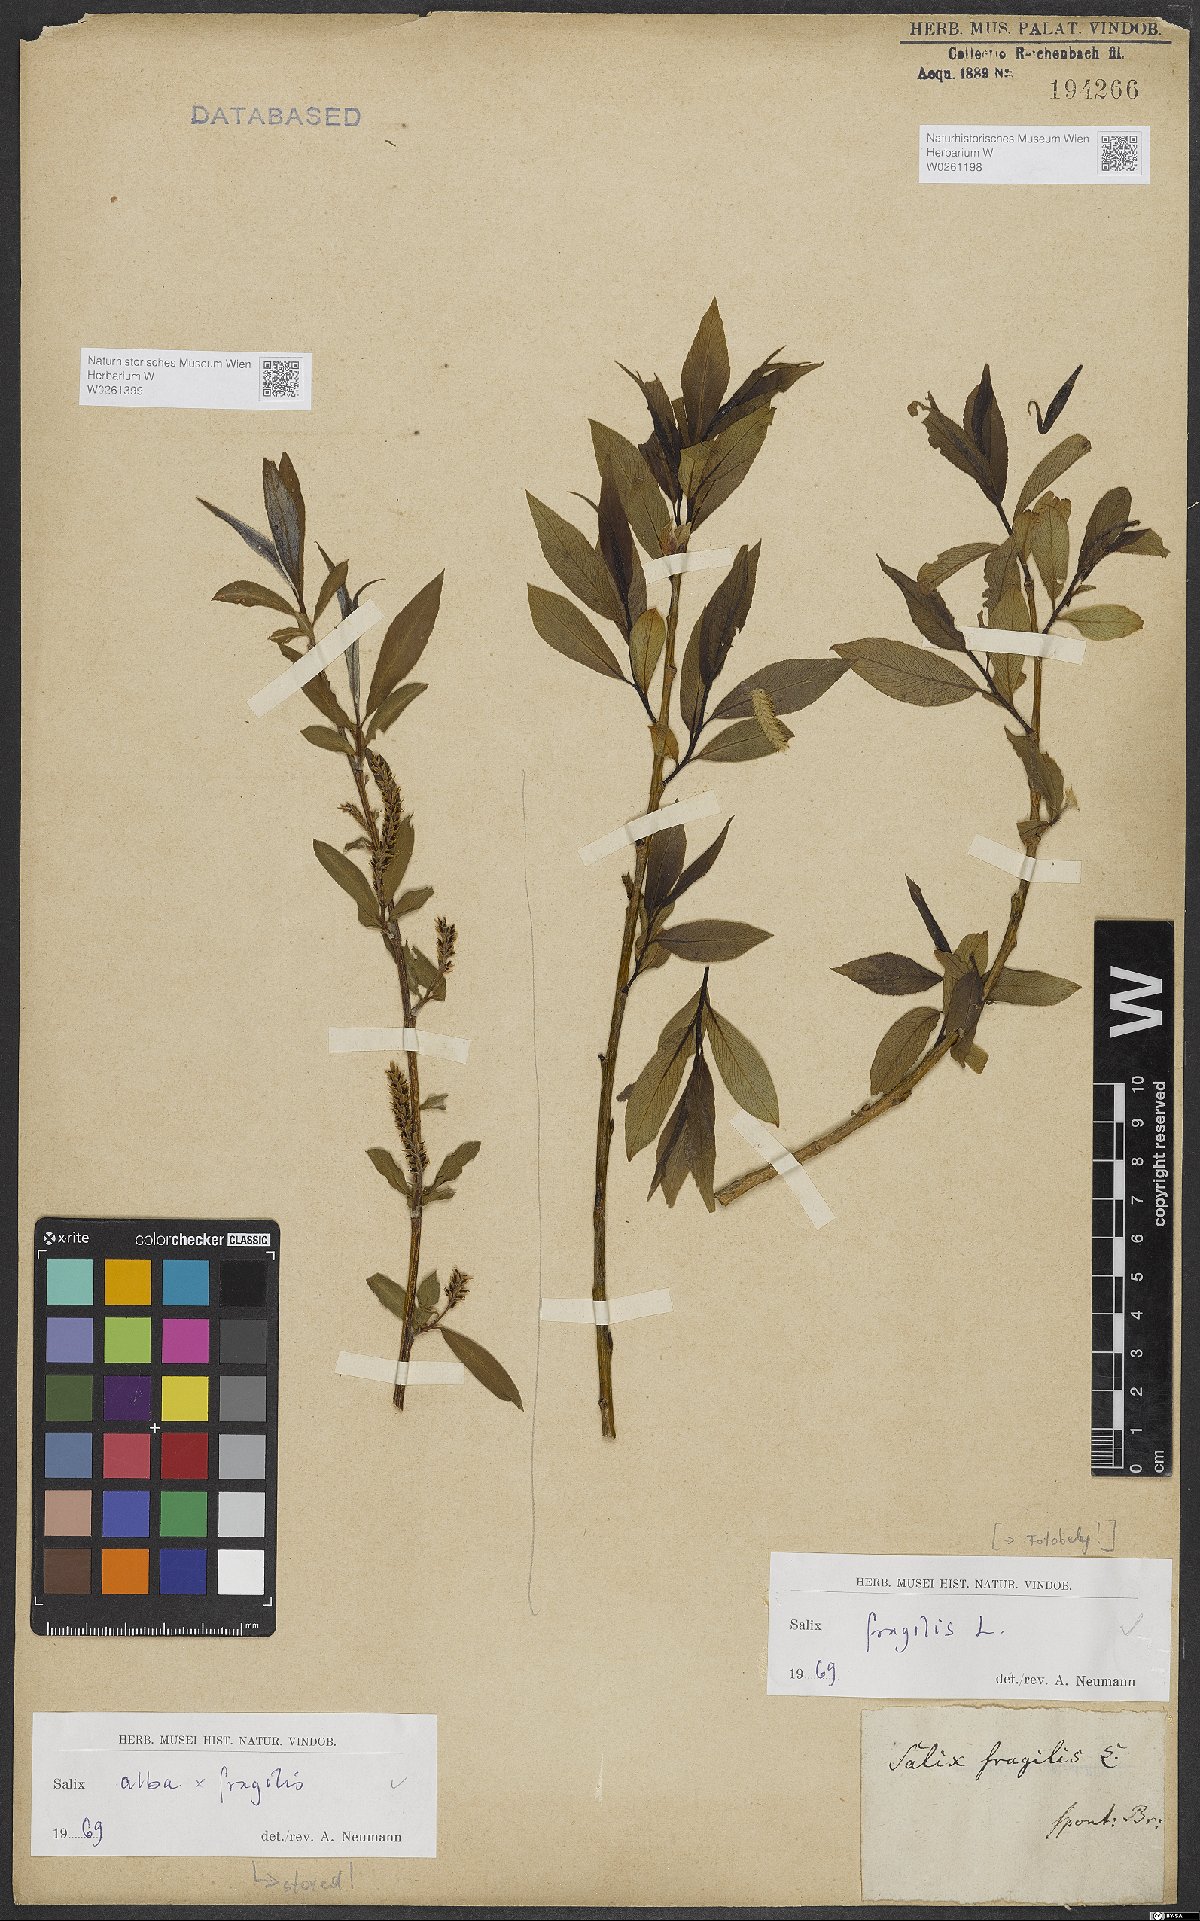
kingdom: Plantae
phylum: Tracheophyta
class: Magnoliopsida
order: Malpighiales
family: Salicaceae
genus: Salix
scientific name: Salix fragilis
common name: Crack willow
